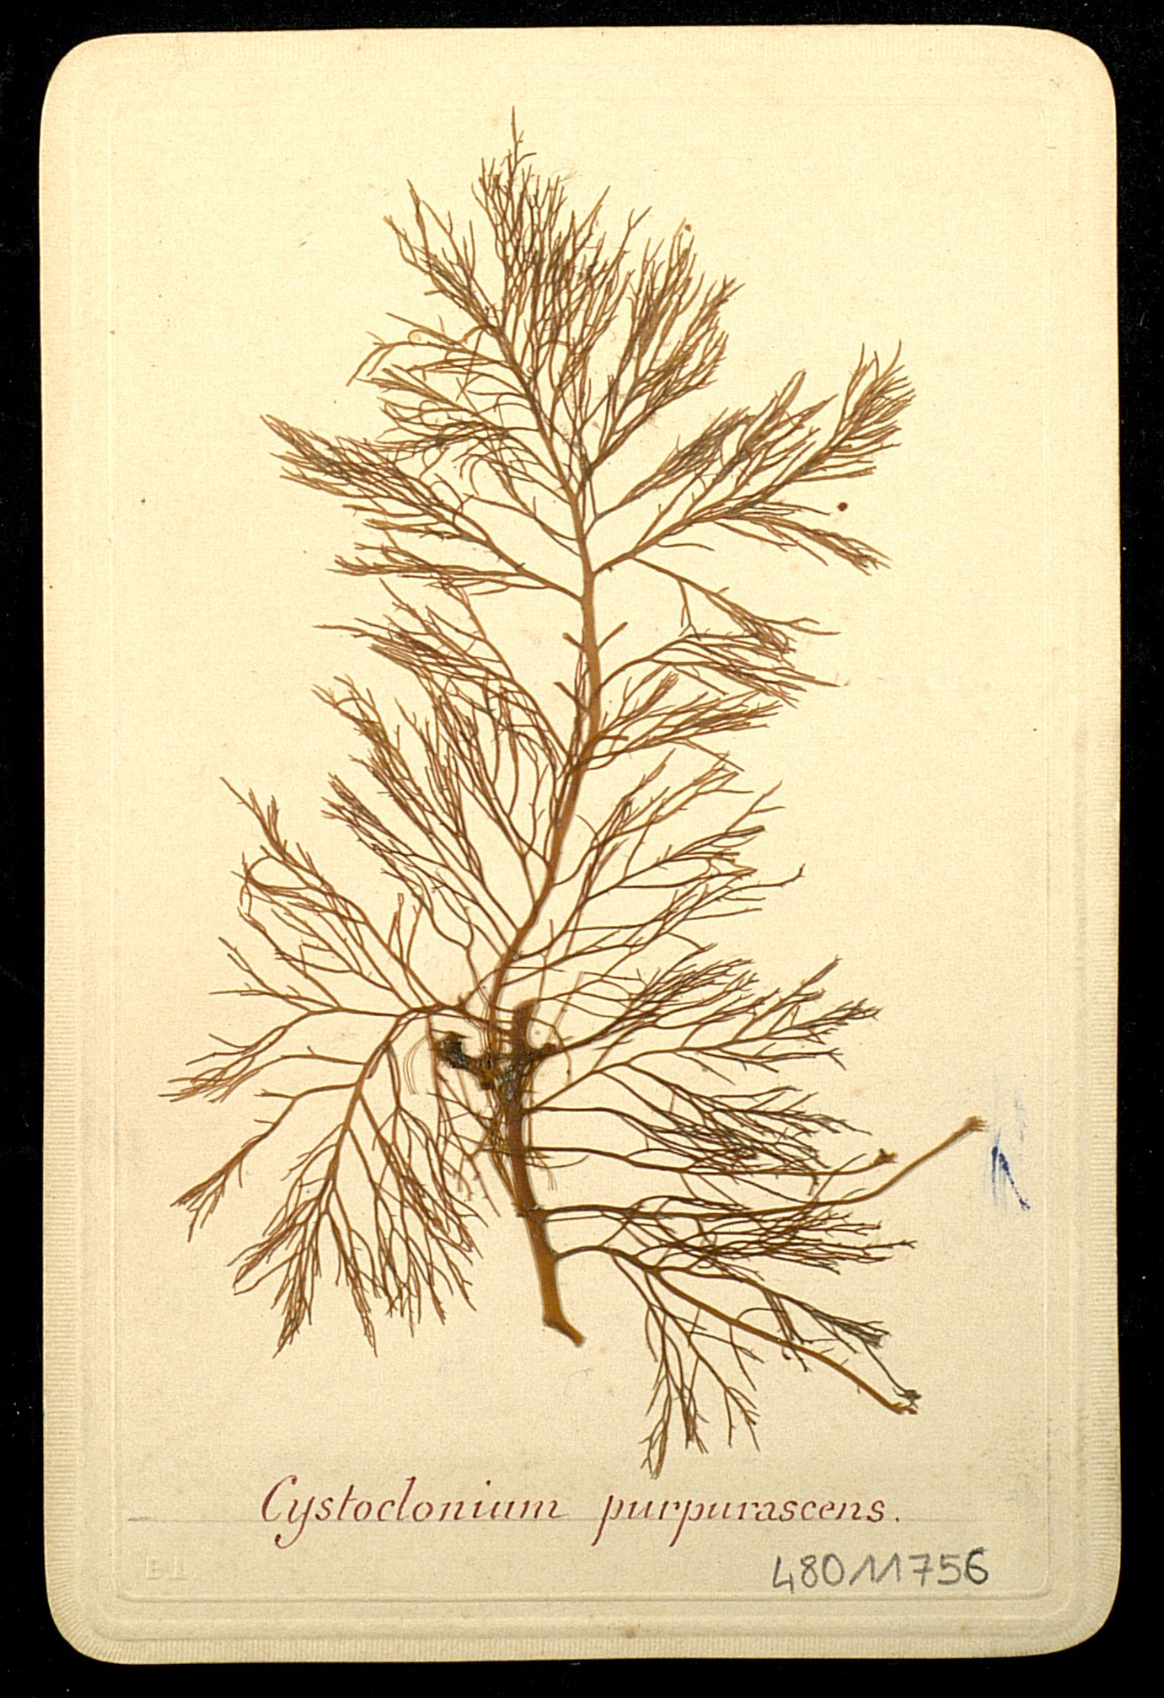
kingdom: Plantae
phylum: Rhodophyta
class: Florideophyceae
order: Gigartinales
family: Cystocloniaceae
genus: Cystoclonium
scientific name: Cystoclonium purpureum
